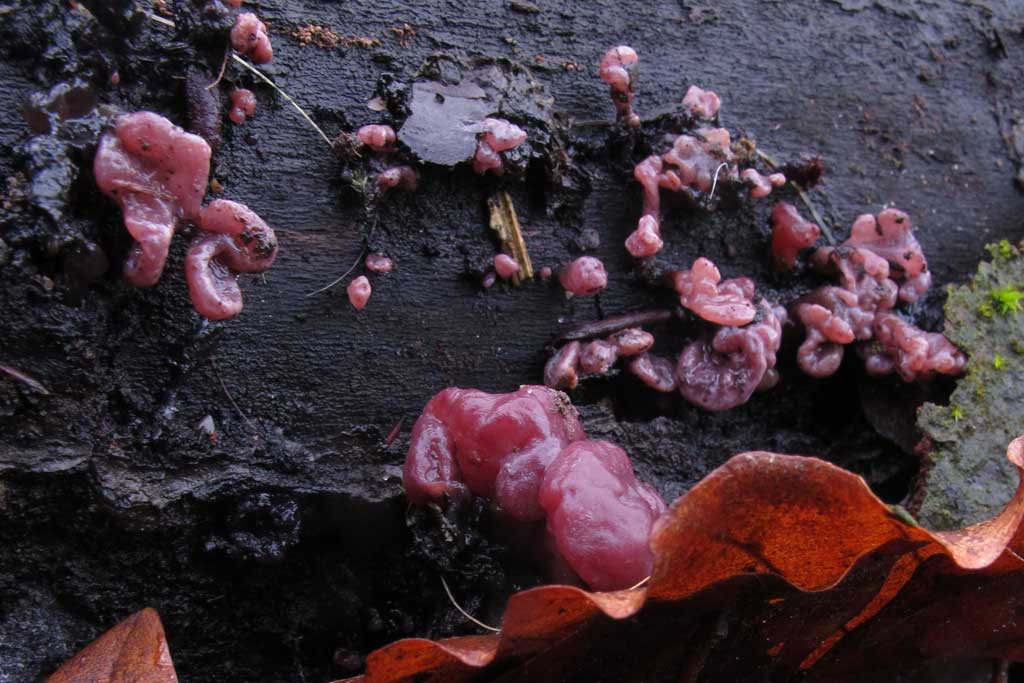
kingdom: Fungi
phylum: Ascomycota
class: Leotiomycetes
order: Helotiales
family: Gelatinodiscaceae
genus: Ascocoryne
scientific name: Ascocoryne sarcoides
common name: rødlilla sejskive
